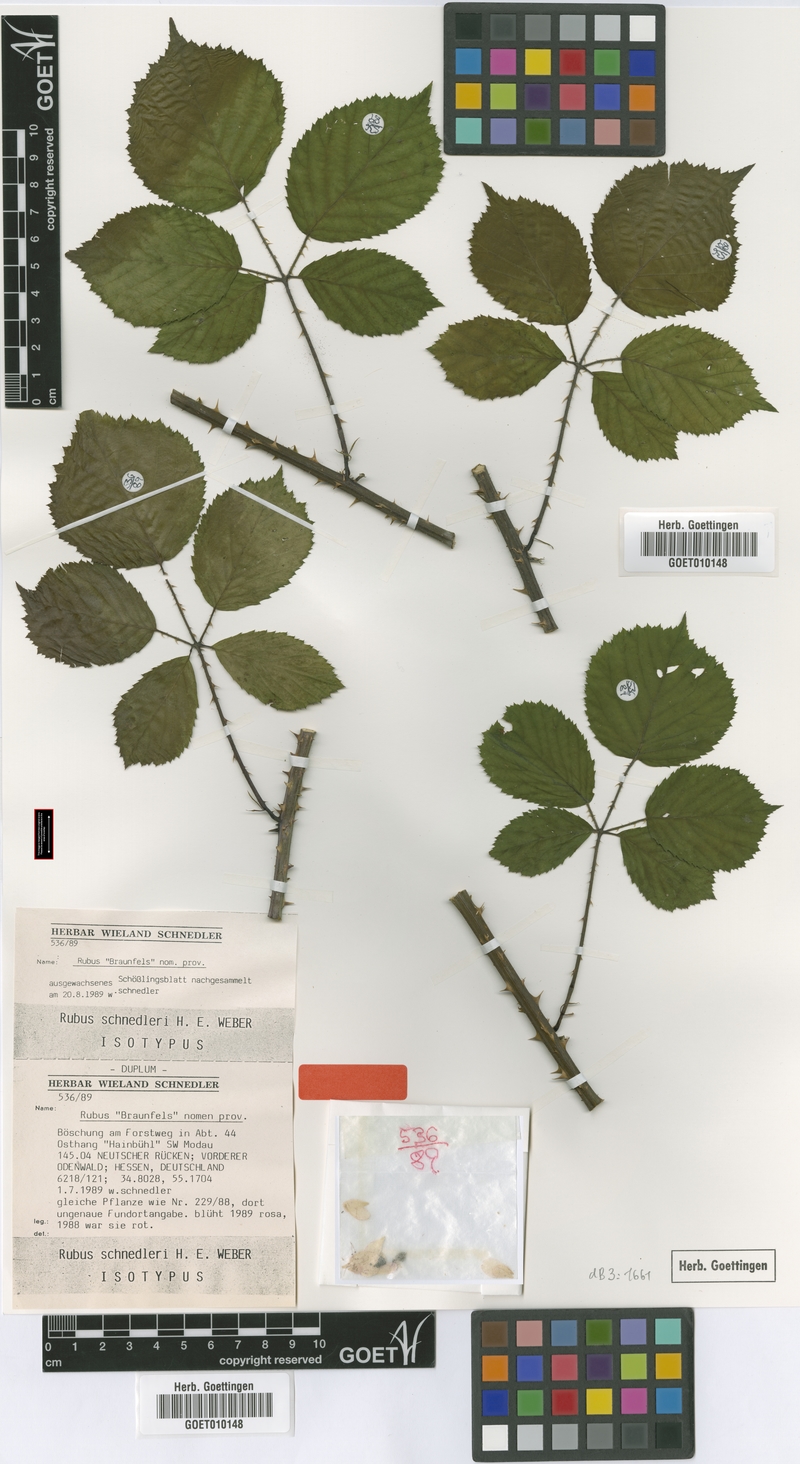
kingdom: Plantae
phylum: Tracheophyta
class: Magnoliopsida
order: Rosales
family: Rosaceae
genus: Rubus
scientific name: Rubus atrovirens
